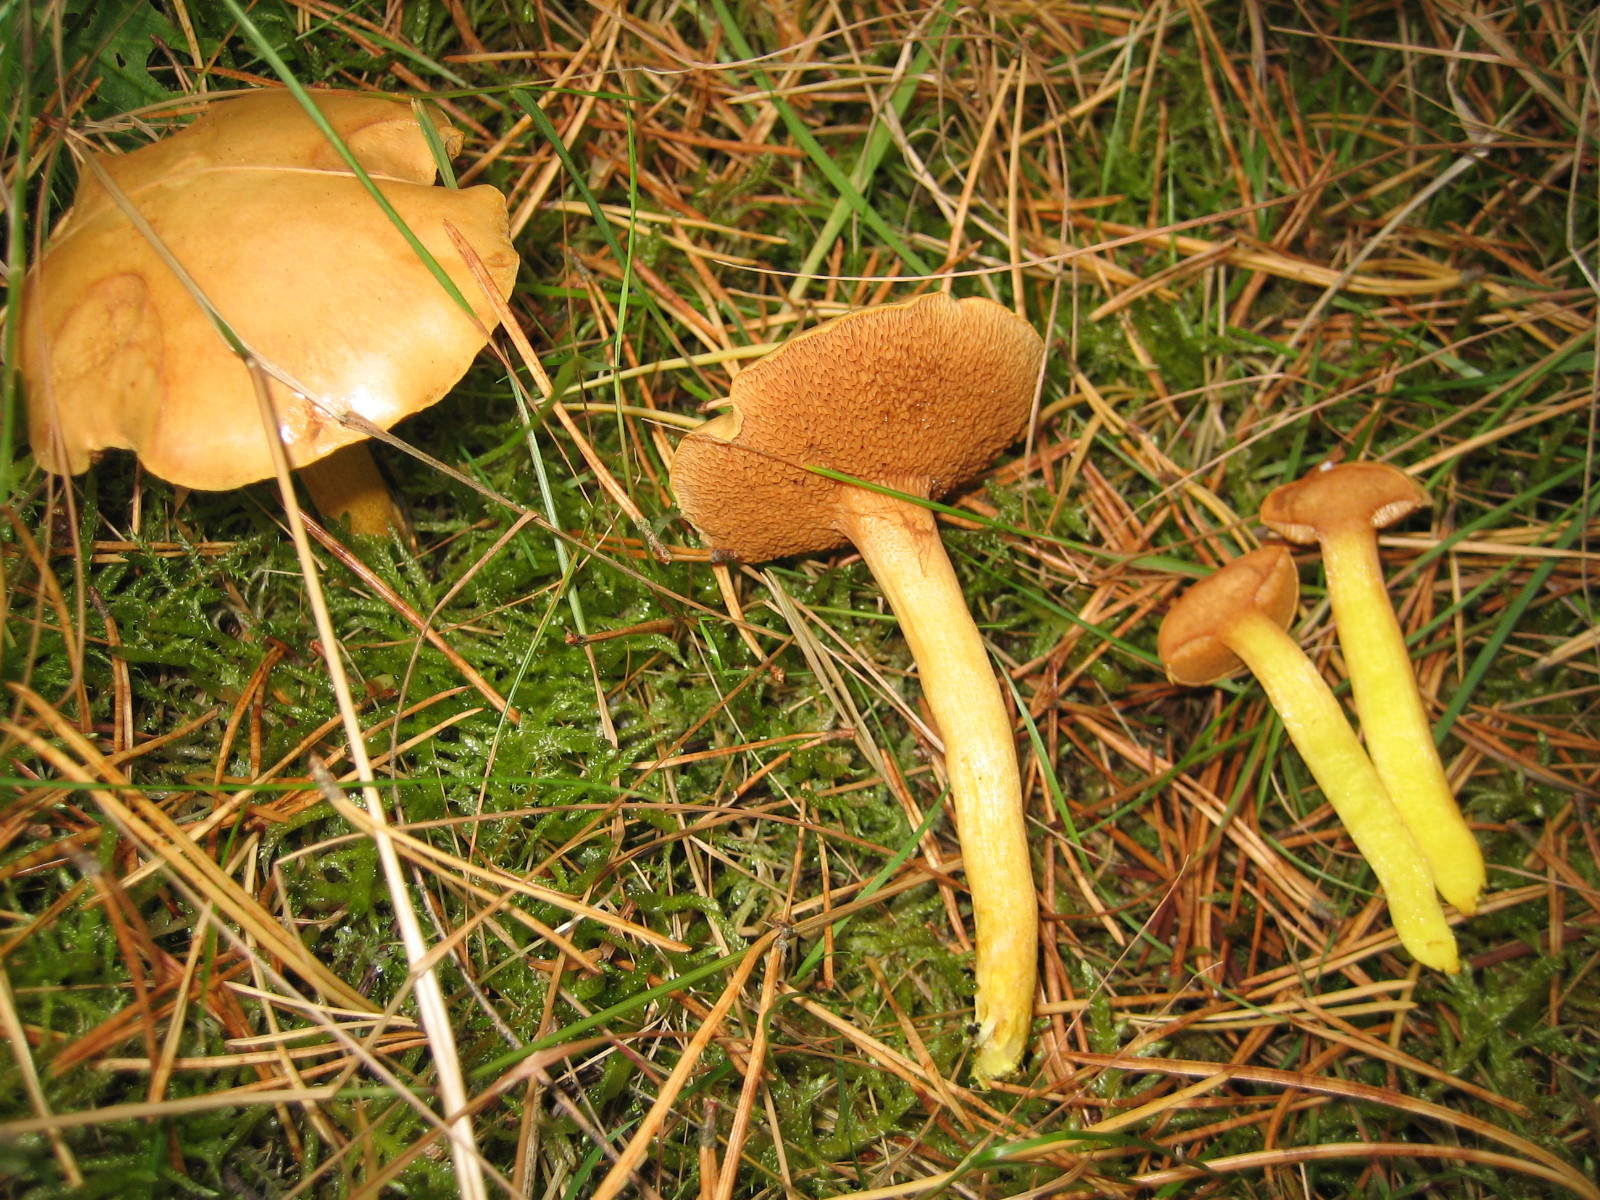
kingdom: Fungi
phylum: Basidiomycota
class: Agaricomycetes
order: Boletales
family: Boletaceae
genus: Chalciporus
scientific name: Chalciporus piperatus
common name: peberrørhat
